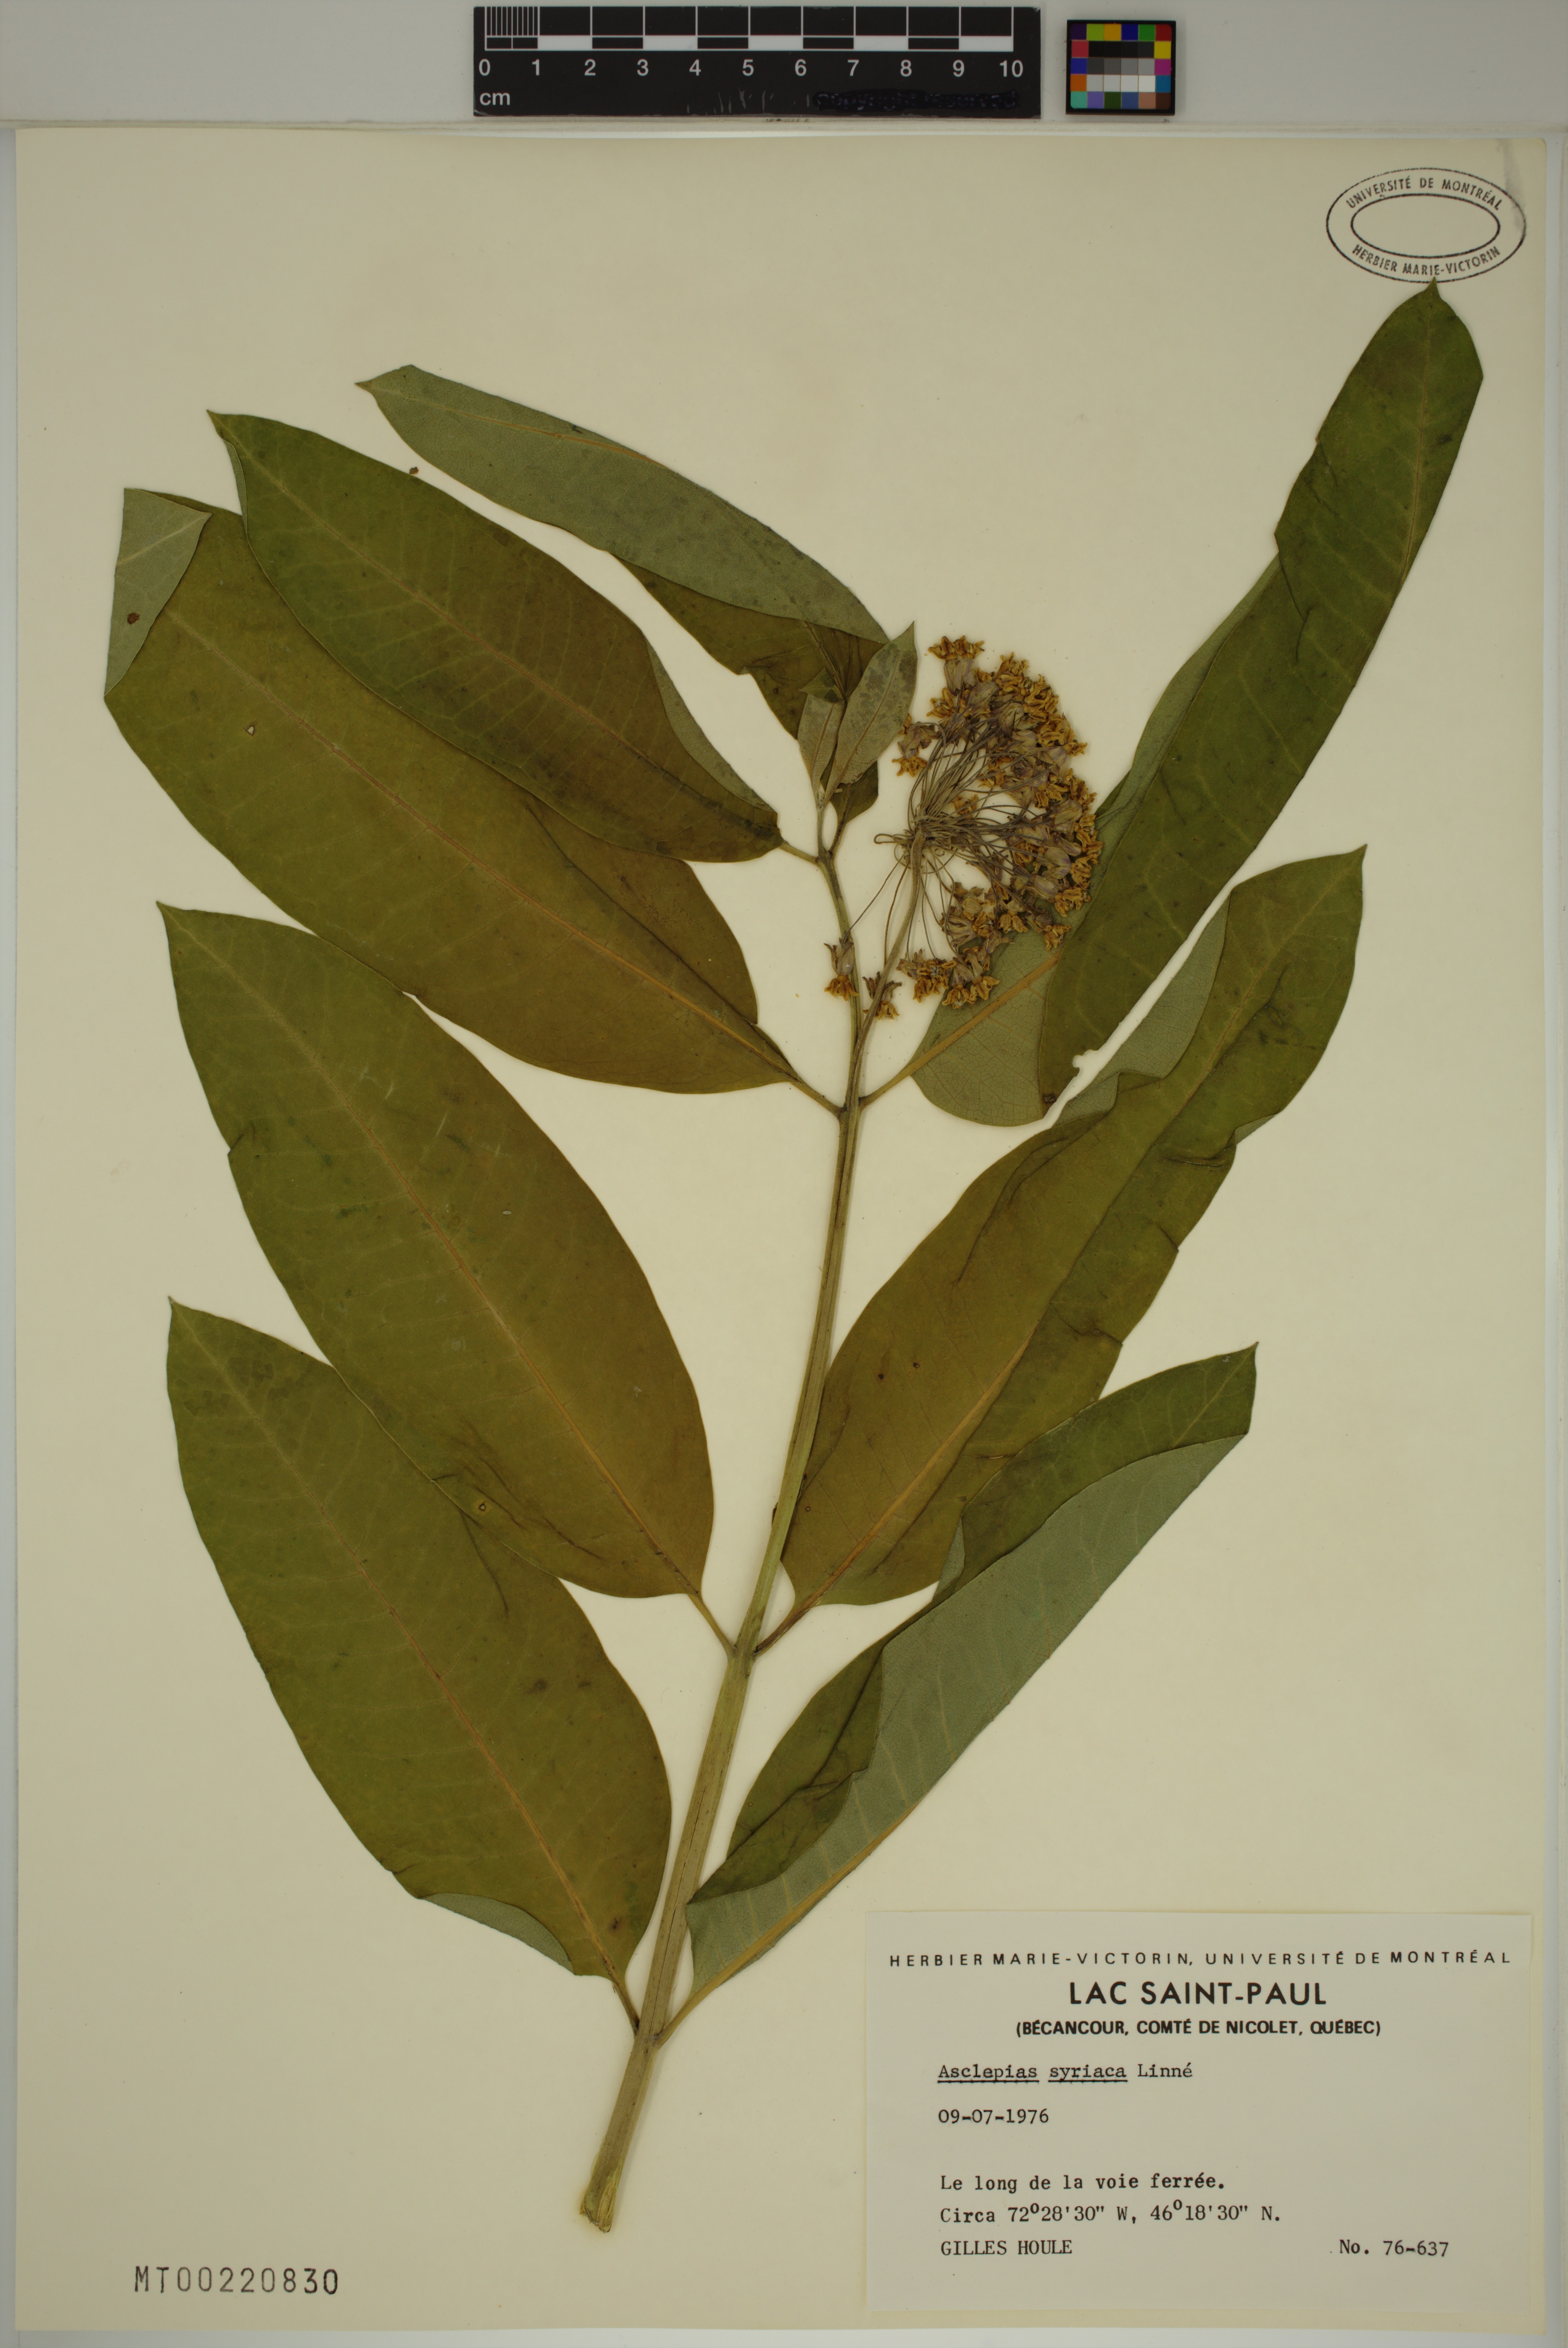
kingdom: Plantae
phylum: Tracheophyta
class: Magnoliopsida
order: Gentianales
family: Apocynaceae
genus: Asclepias
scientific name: Asclepias syriaca
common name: Common milkweed
